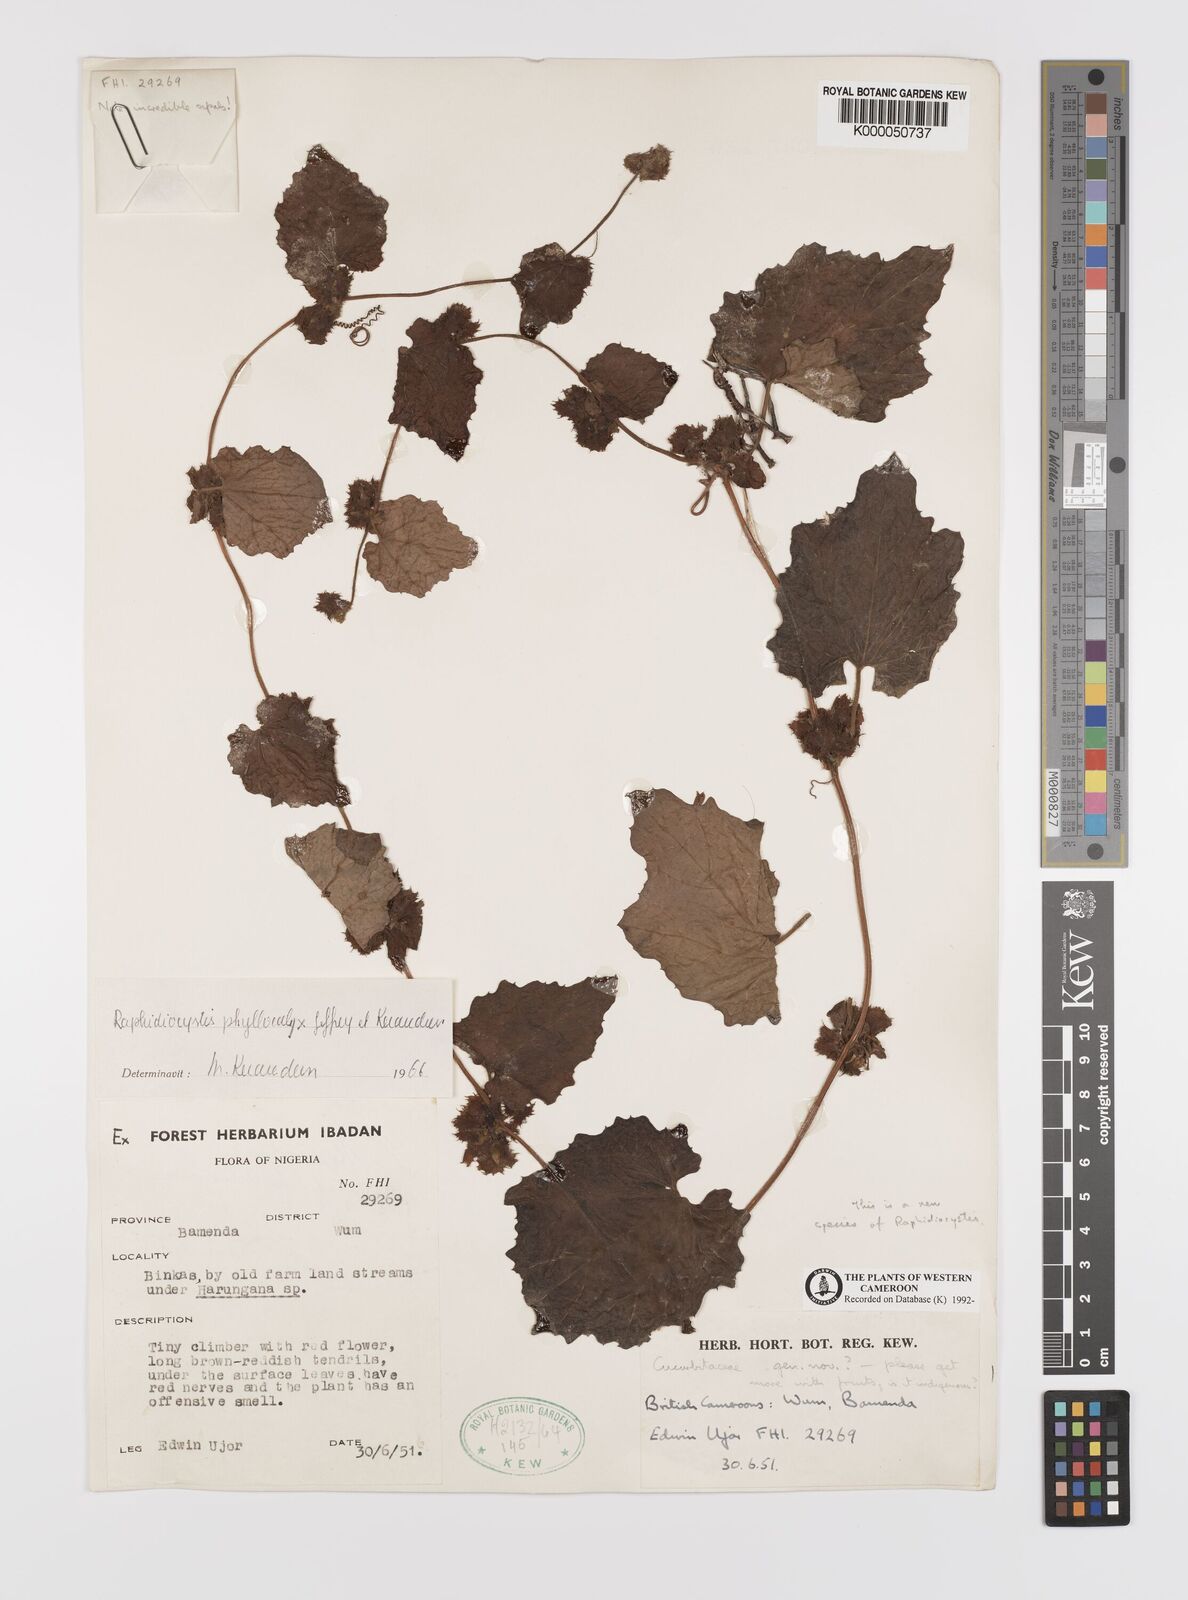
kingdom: Plantae
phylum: Tracheophyta
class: Magnoliopsida
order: Cucurbitales
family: Cucurbitaceae
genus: Raphidiocystis
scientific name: Raphidiocystis phyllocalyx
